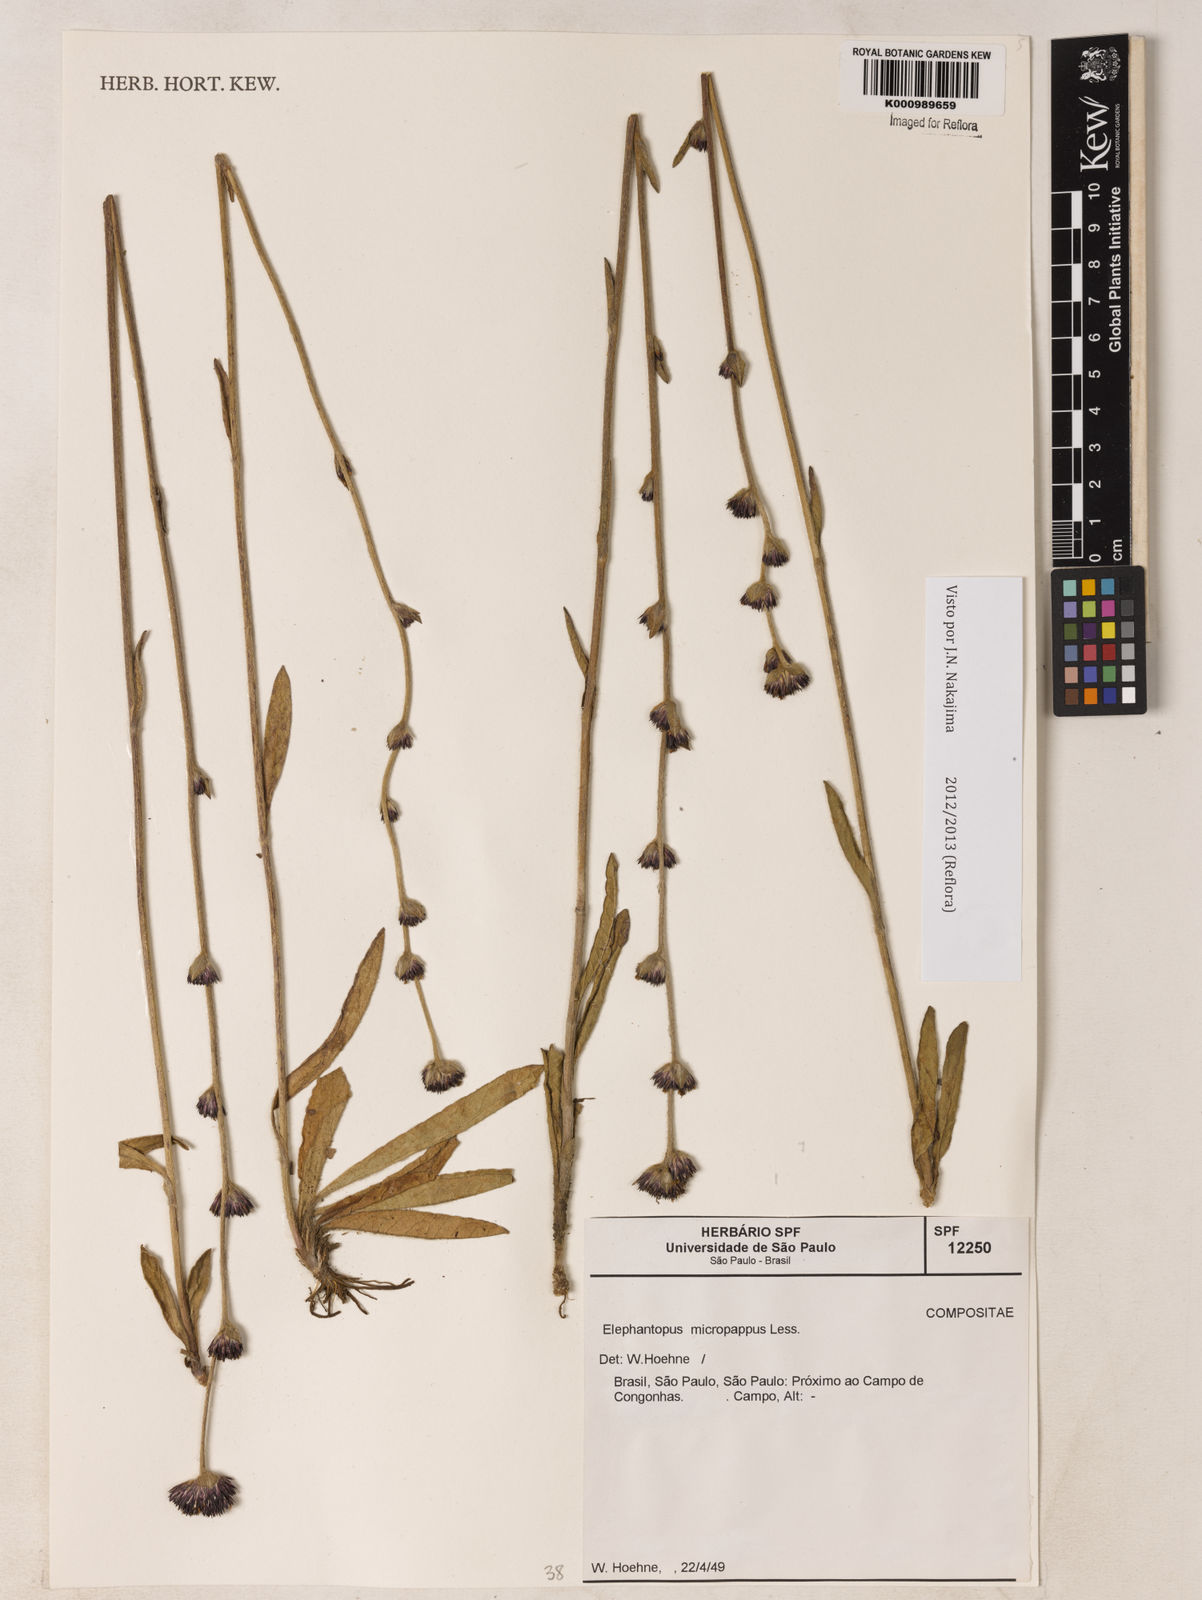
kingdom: Plantae
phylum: Tracheophyta
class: Magnoliopsida
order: Asterales
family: Asteraceae
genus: Elephantopus
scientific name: Elephantopus micropappus
